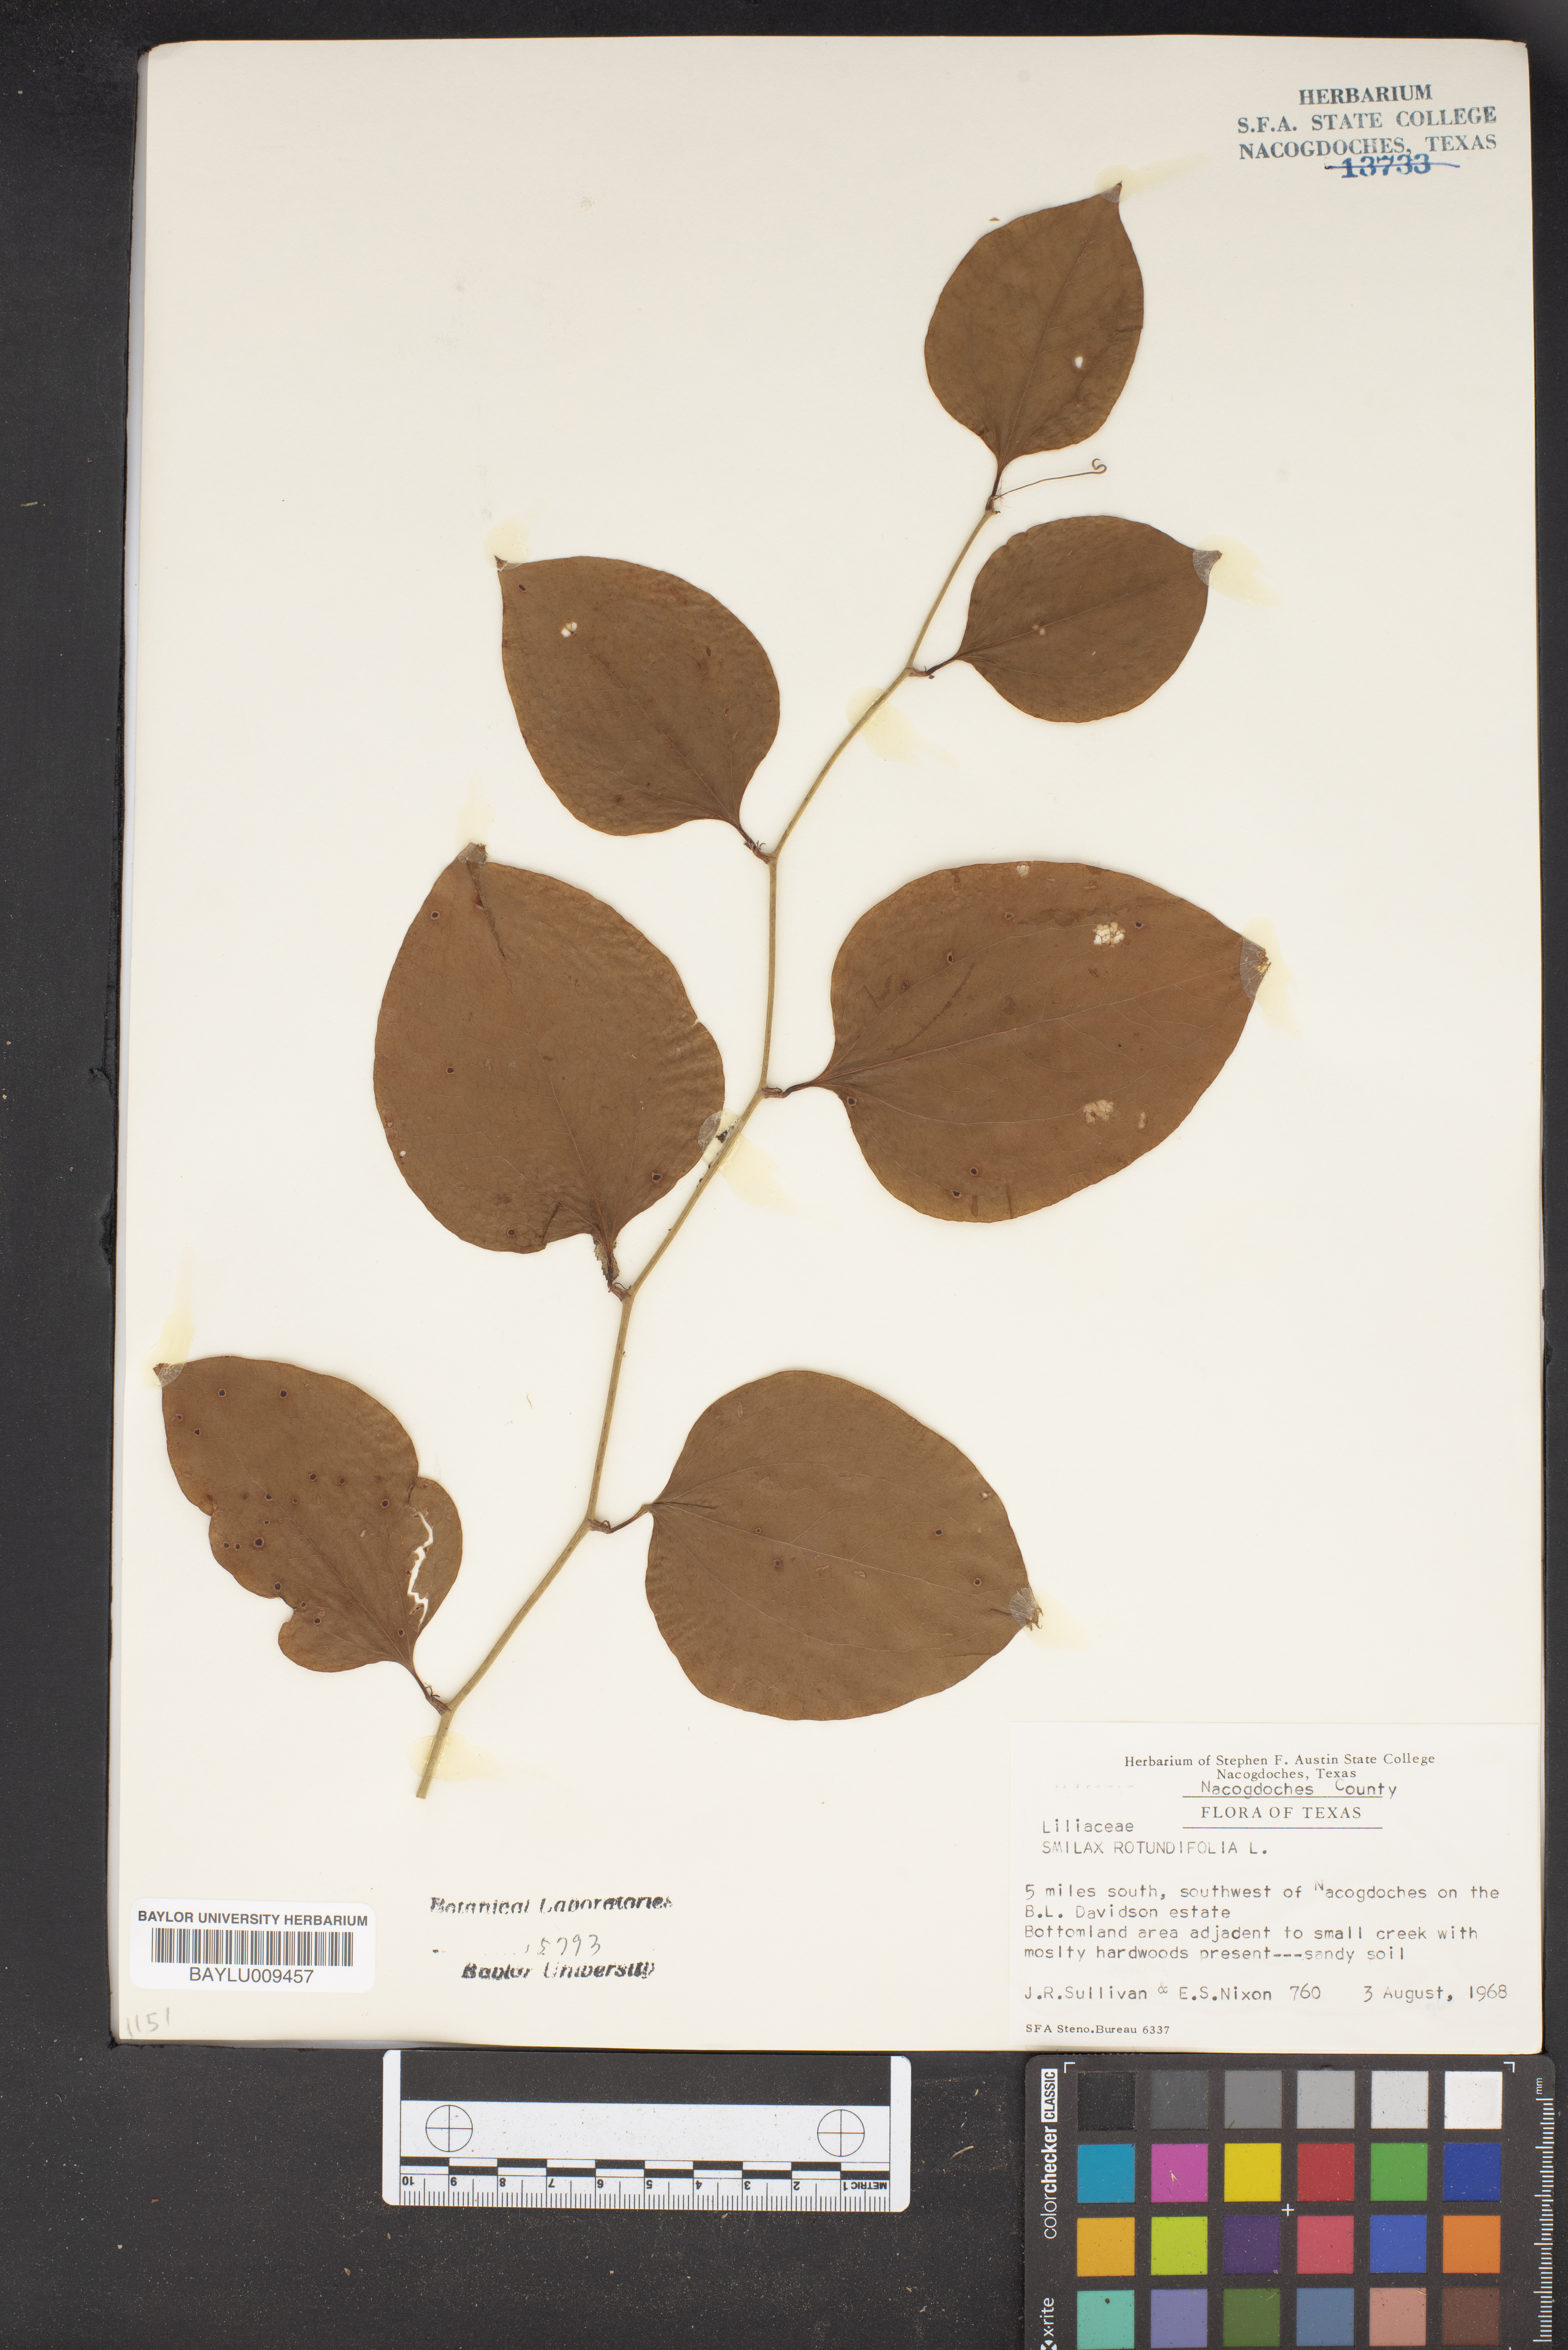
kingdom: Plantae
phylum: Tracheophyta
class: Liliopsida
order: Liliales
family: Smilacaceae
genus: Smilax
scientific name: Smilax rotundifolia
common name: Bullbriar
